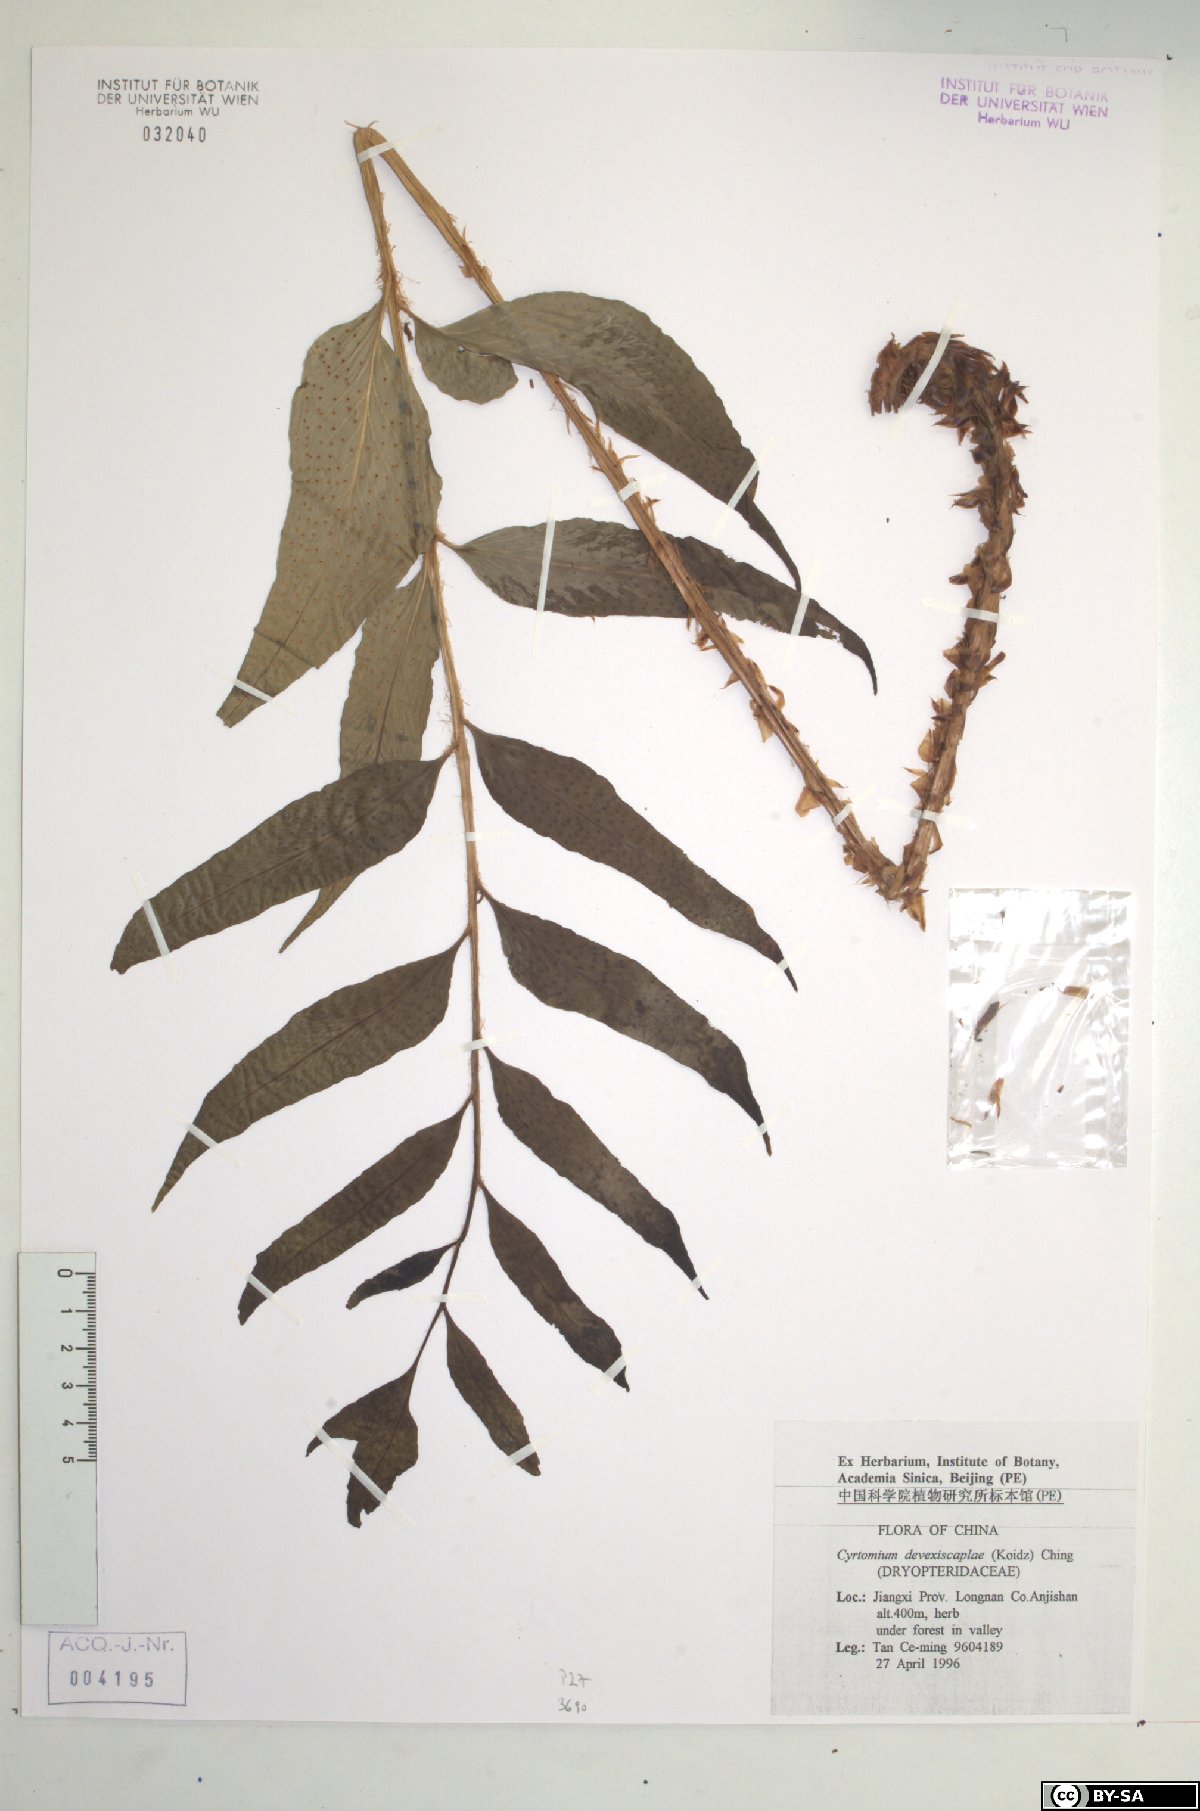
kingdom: Plantae
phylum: Tracheophyta
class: Polypodiopsida
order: Polypodiales
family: Dryopteridaceae
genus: Cyrtomium
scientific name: Cyrtomium devexiscapulae
